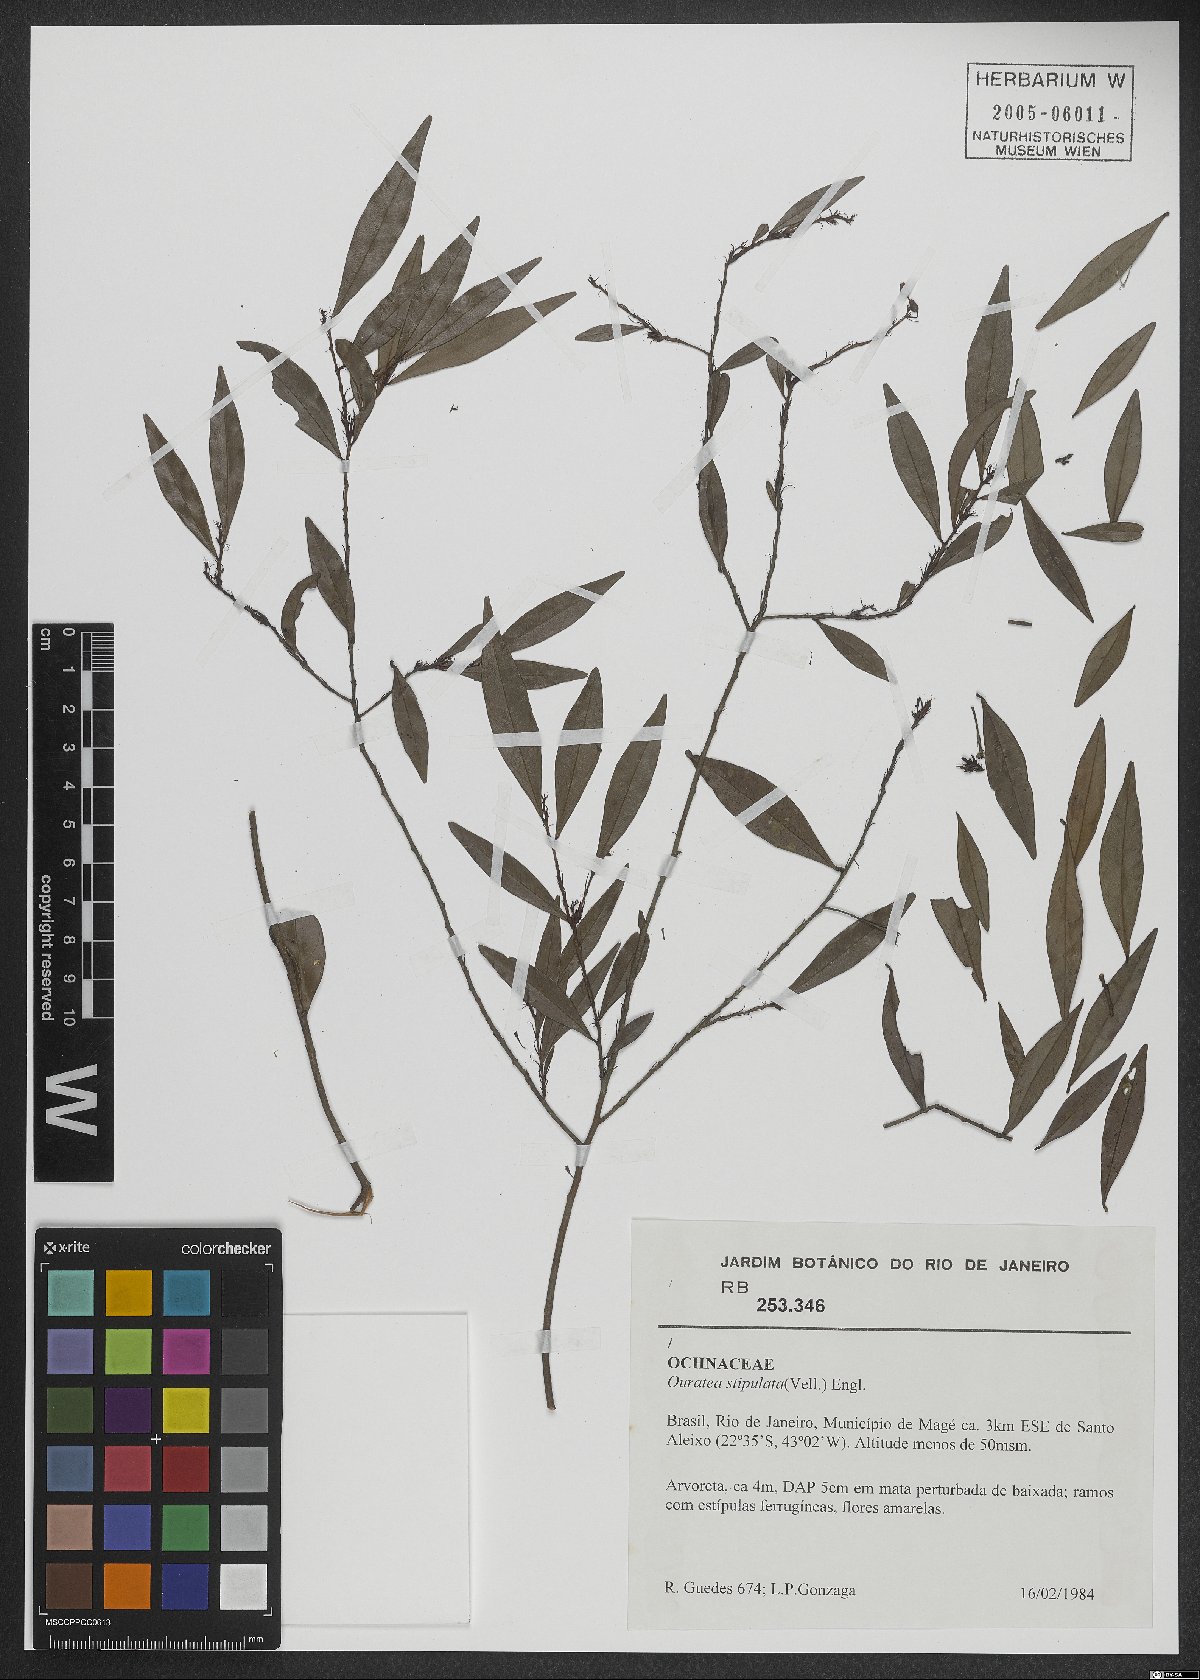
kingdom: Plantae
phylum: Tracheophyta
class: Magnoliopsida
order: Malpighiales
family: Ochnaceae
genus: Ouratea
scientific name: Ouratea stipulata
